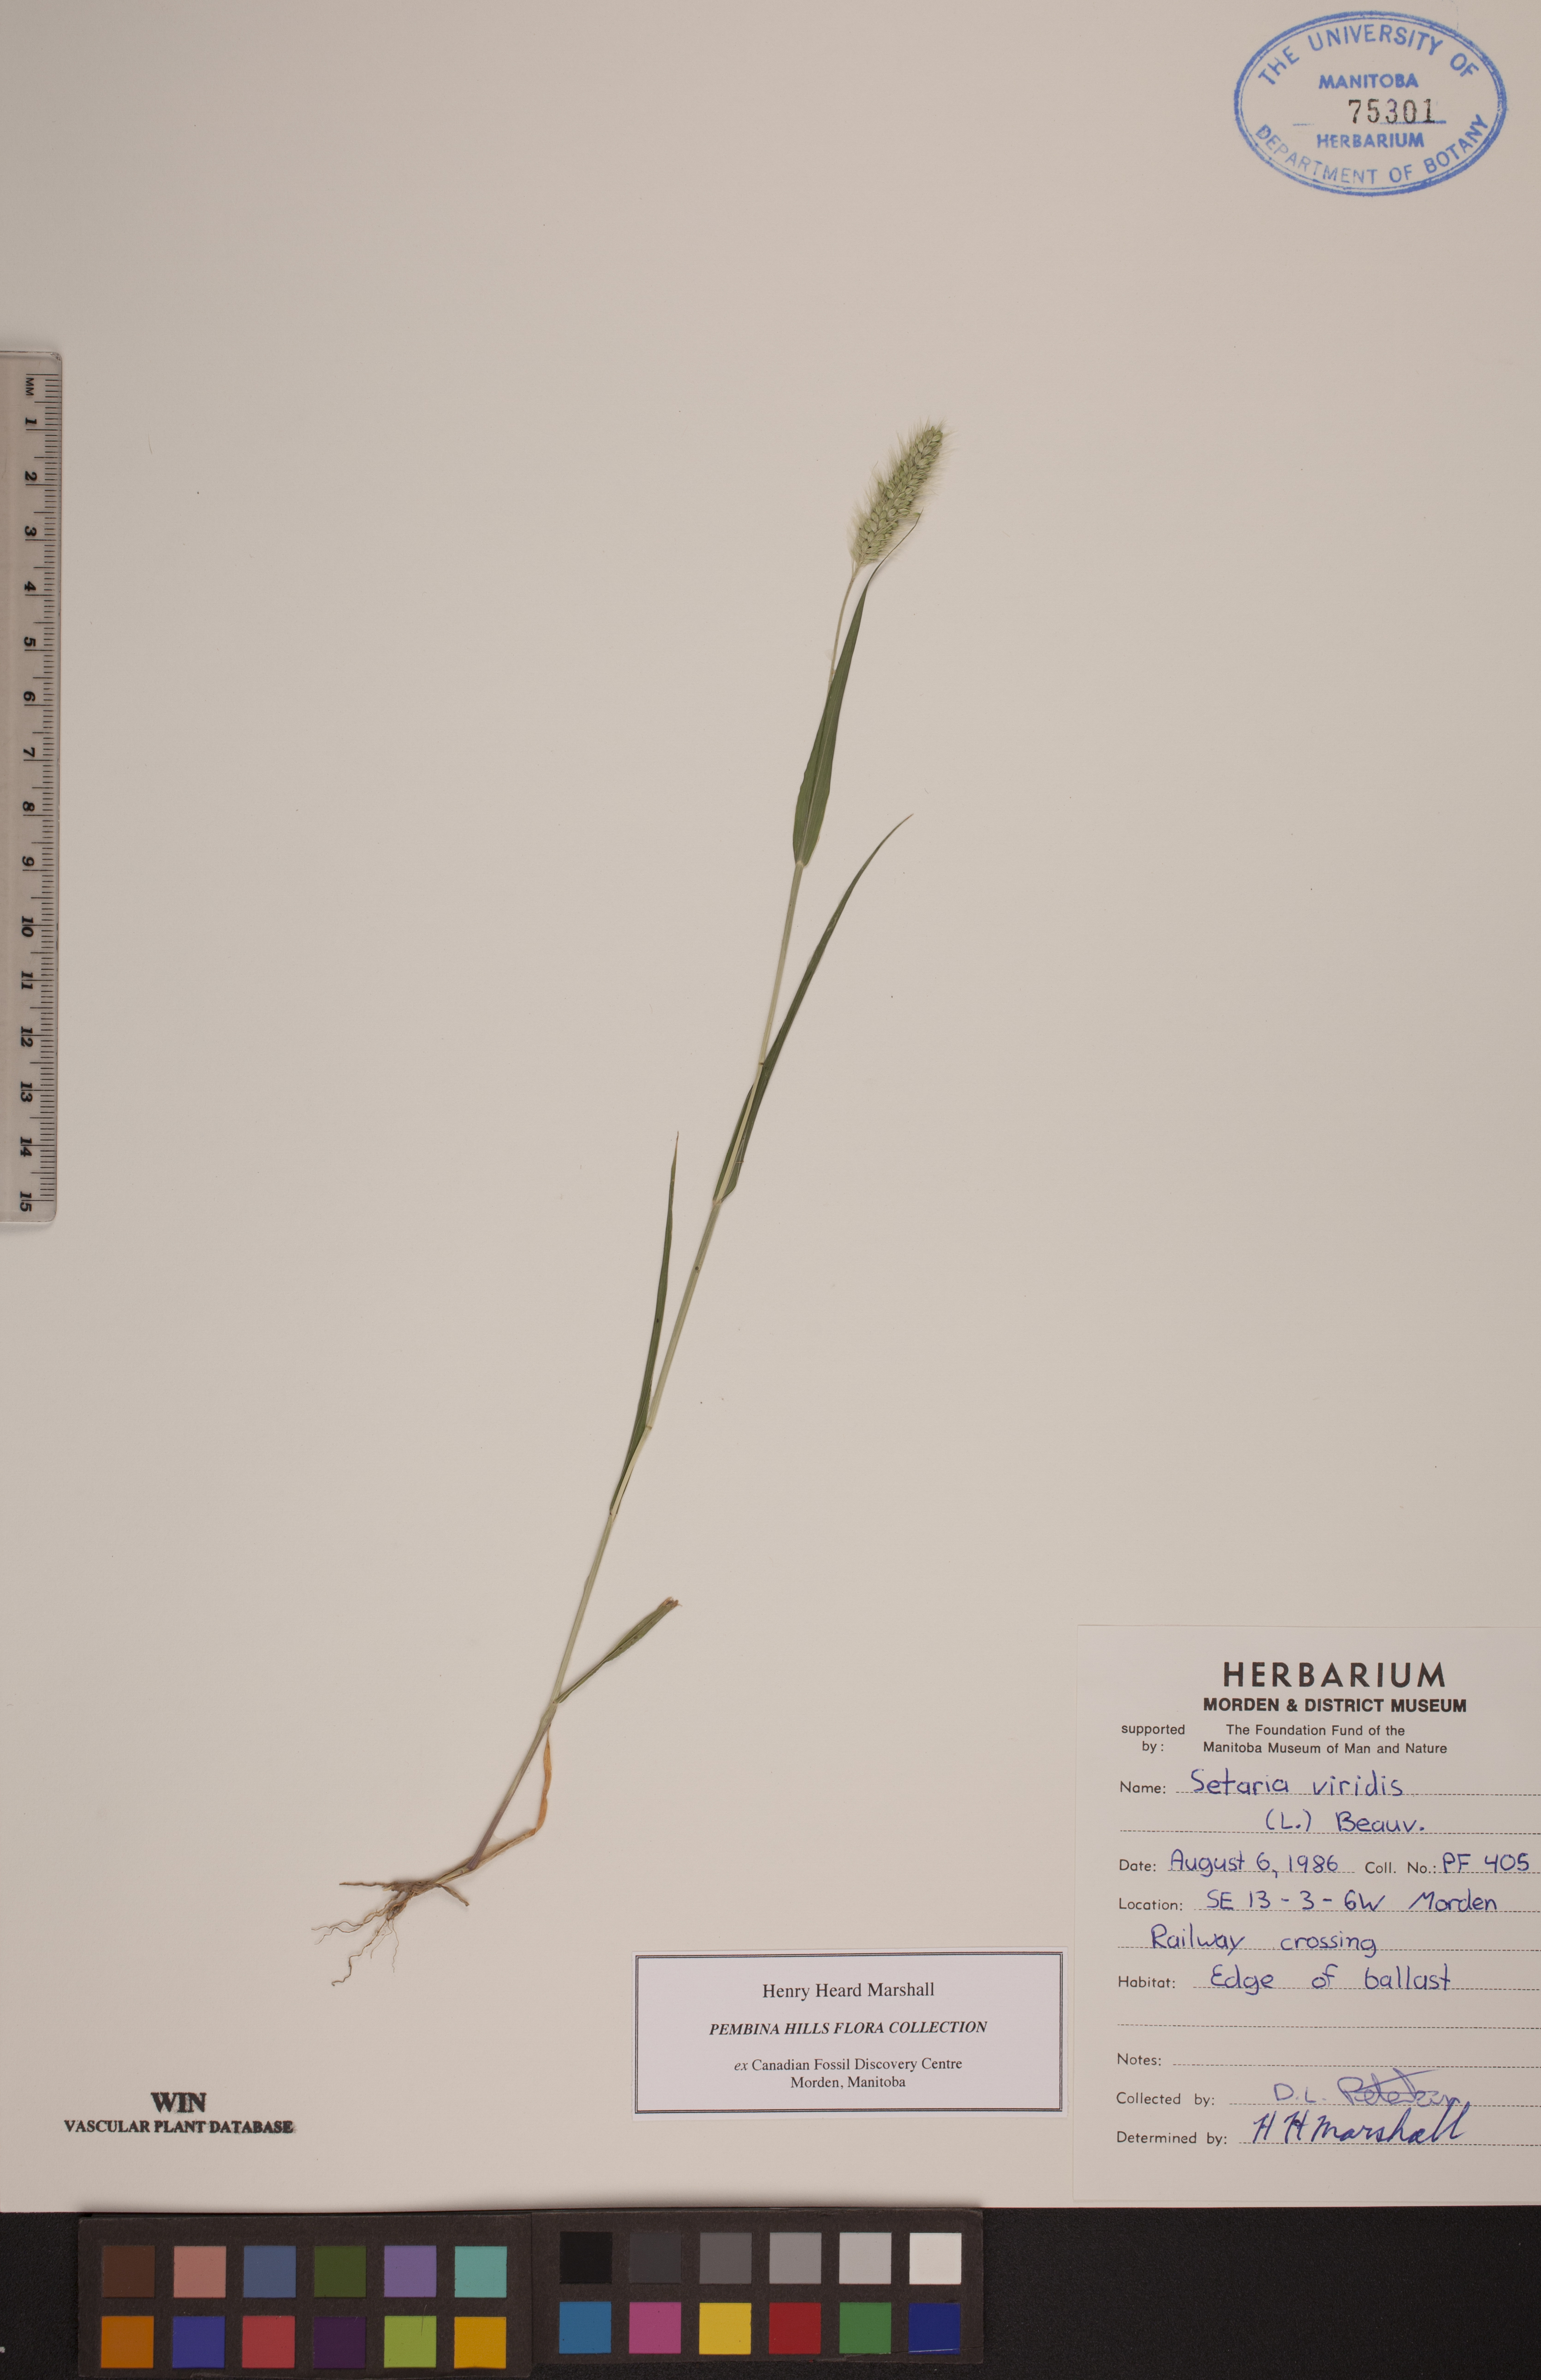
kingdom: Plantae
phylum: Tracheophyta
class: Liliopsida
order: Poales
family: Poaceae
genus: Setaria
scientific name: Setaria viridis
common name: Green bristlegrass
